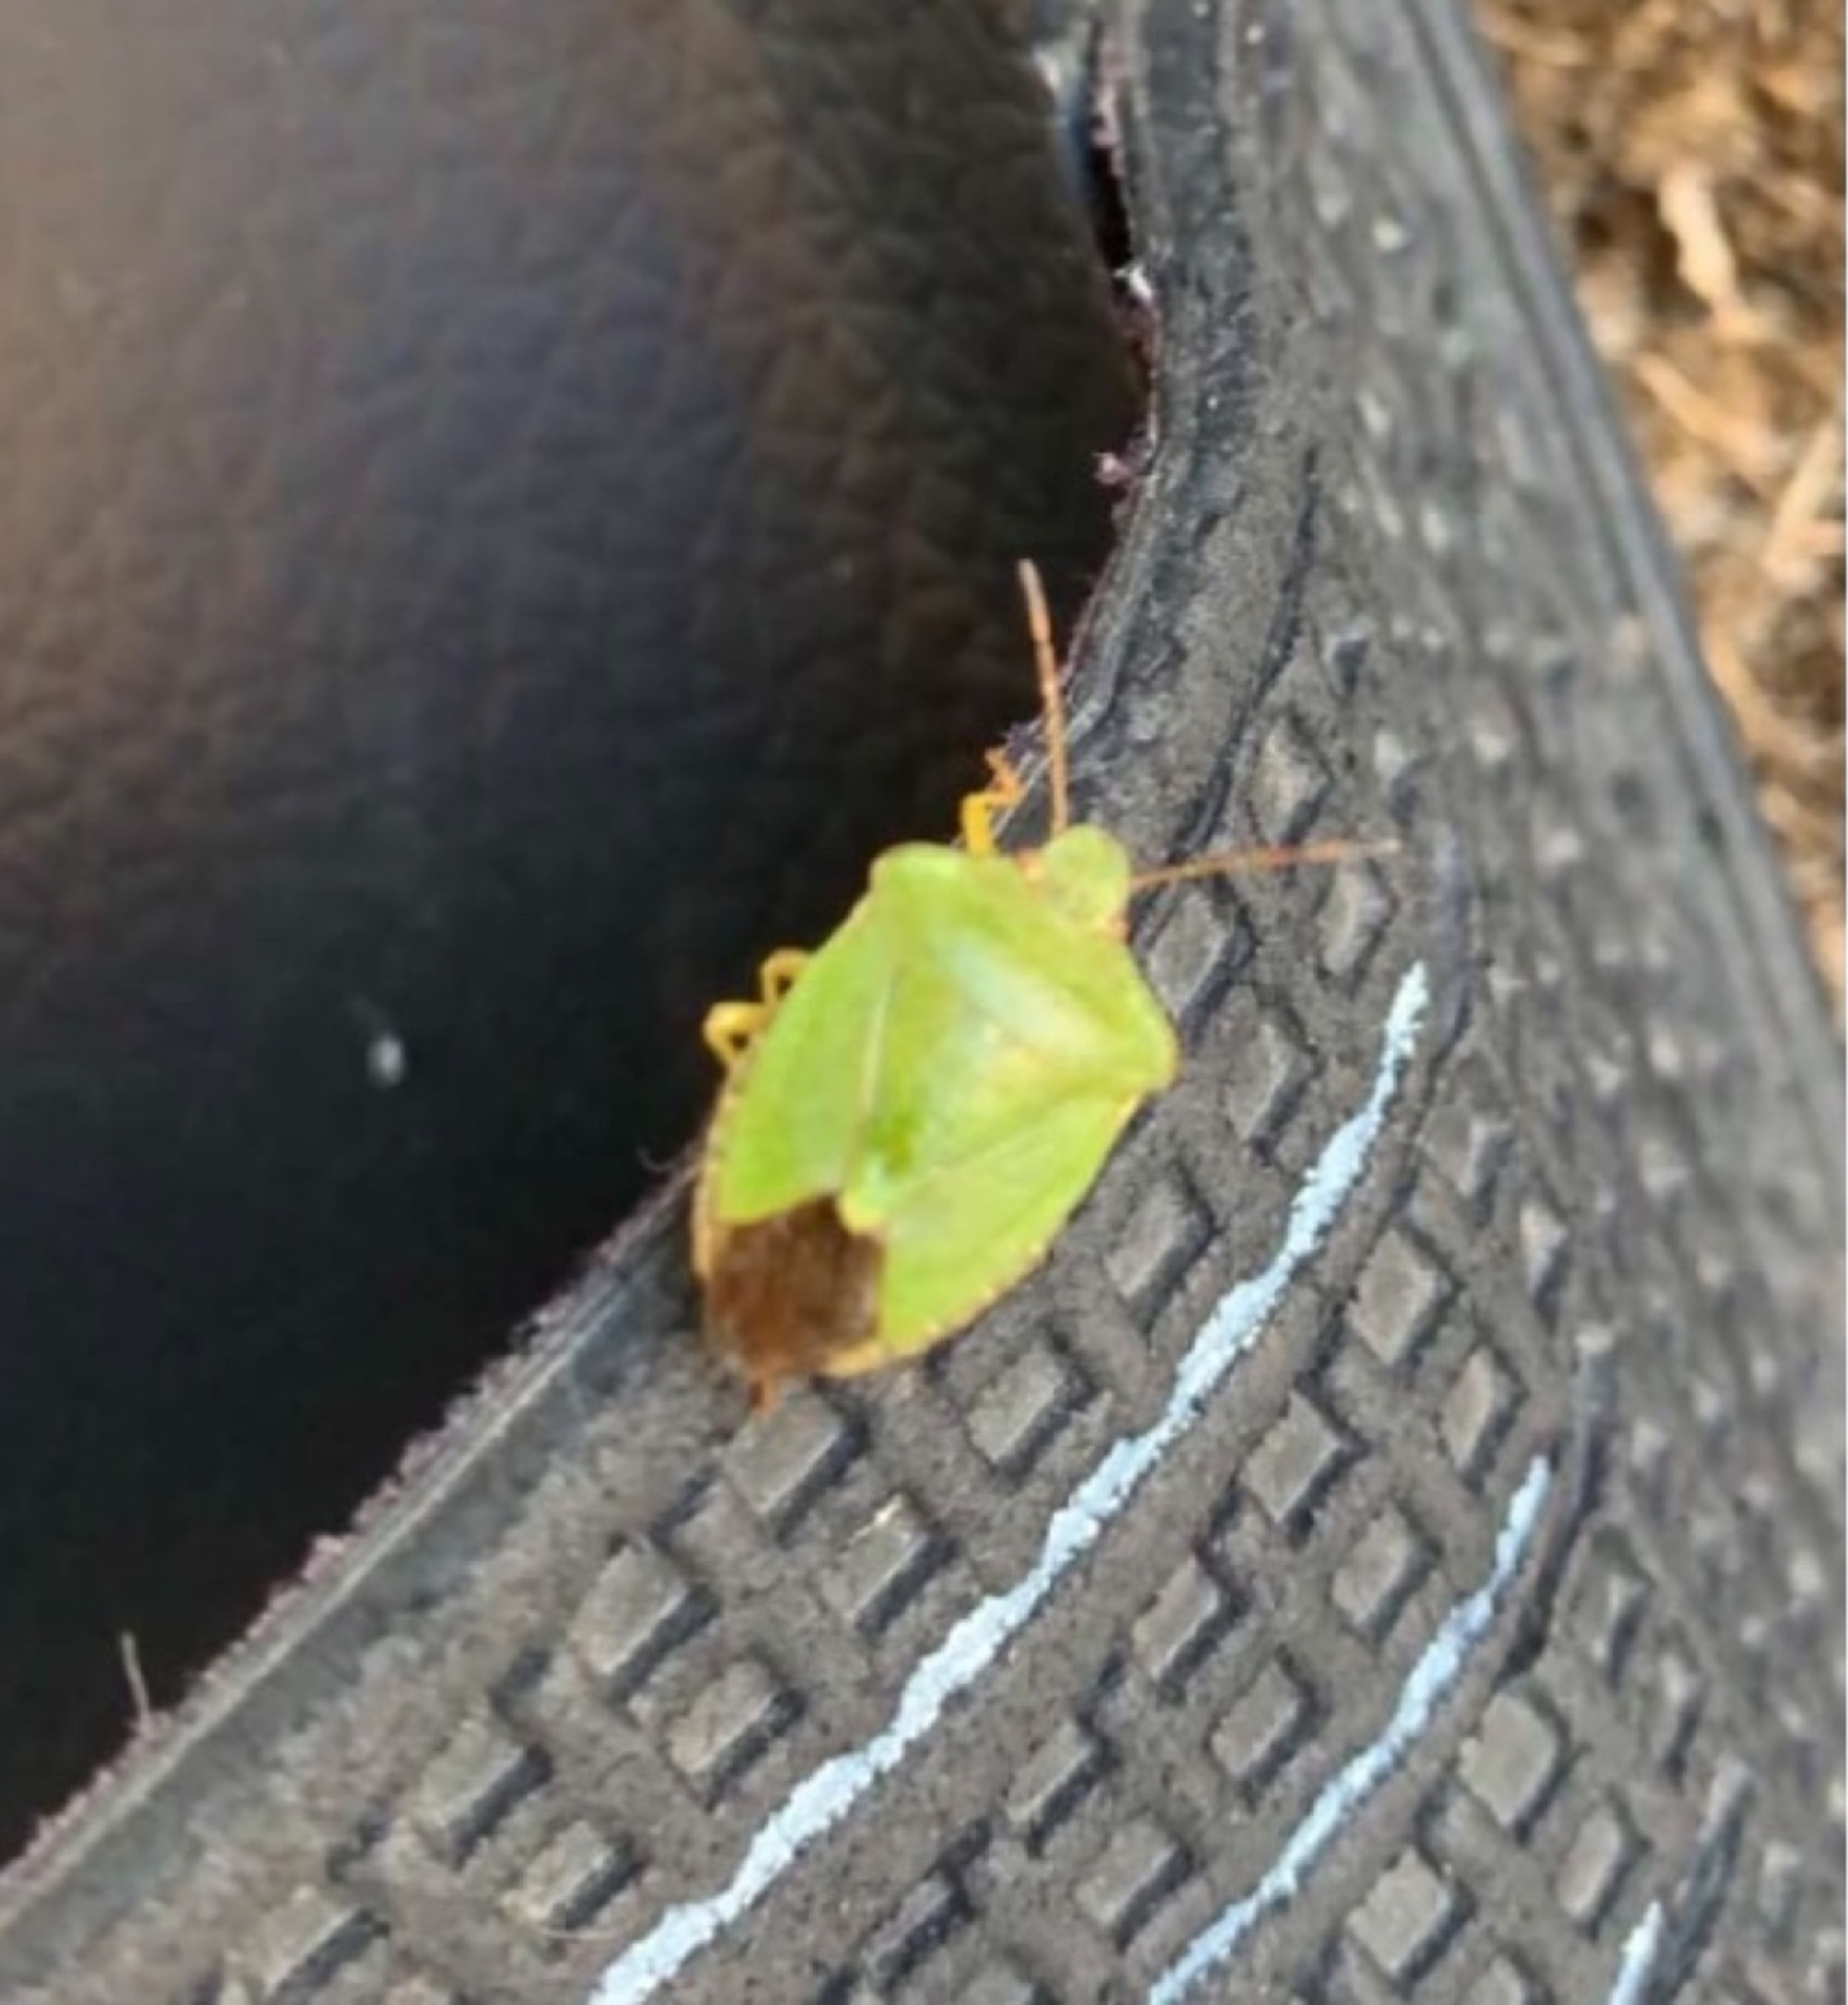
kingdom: Animalia
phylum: Arthropoda
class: Insecta
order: Hemiptera
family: Pentatomidae
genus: Palomena
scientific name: Palomena prasina
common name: Grøn bredtæge
